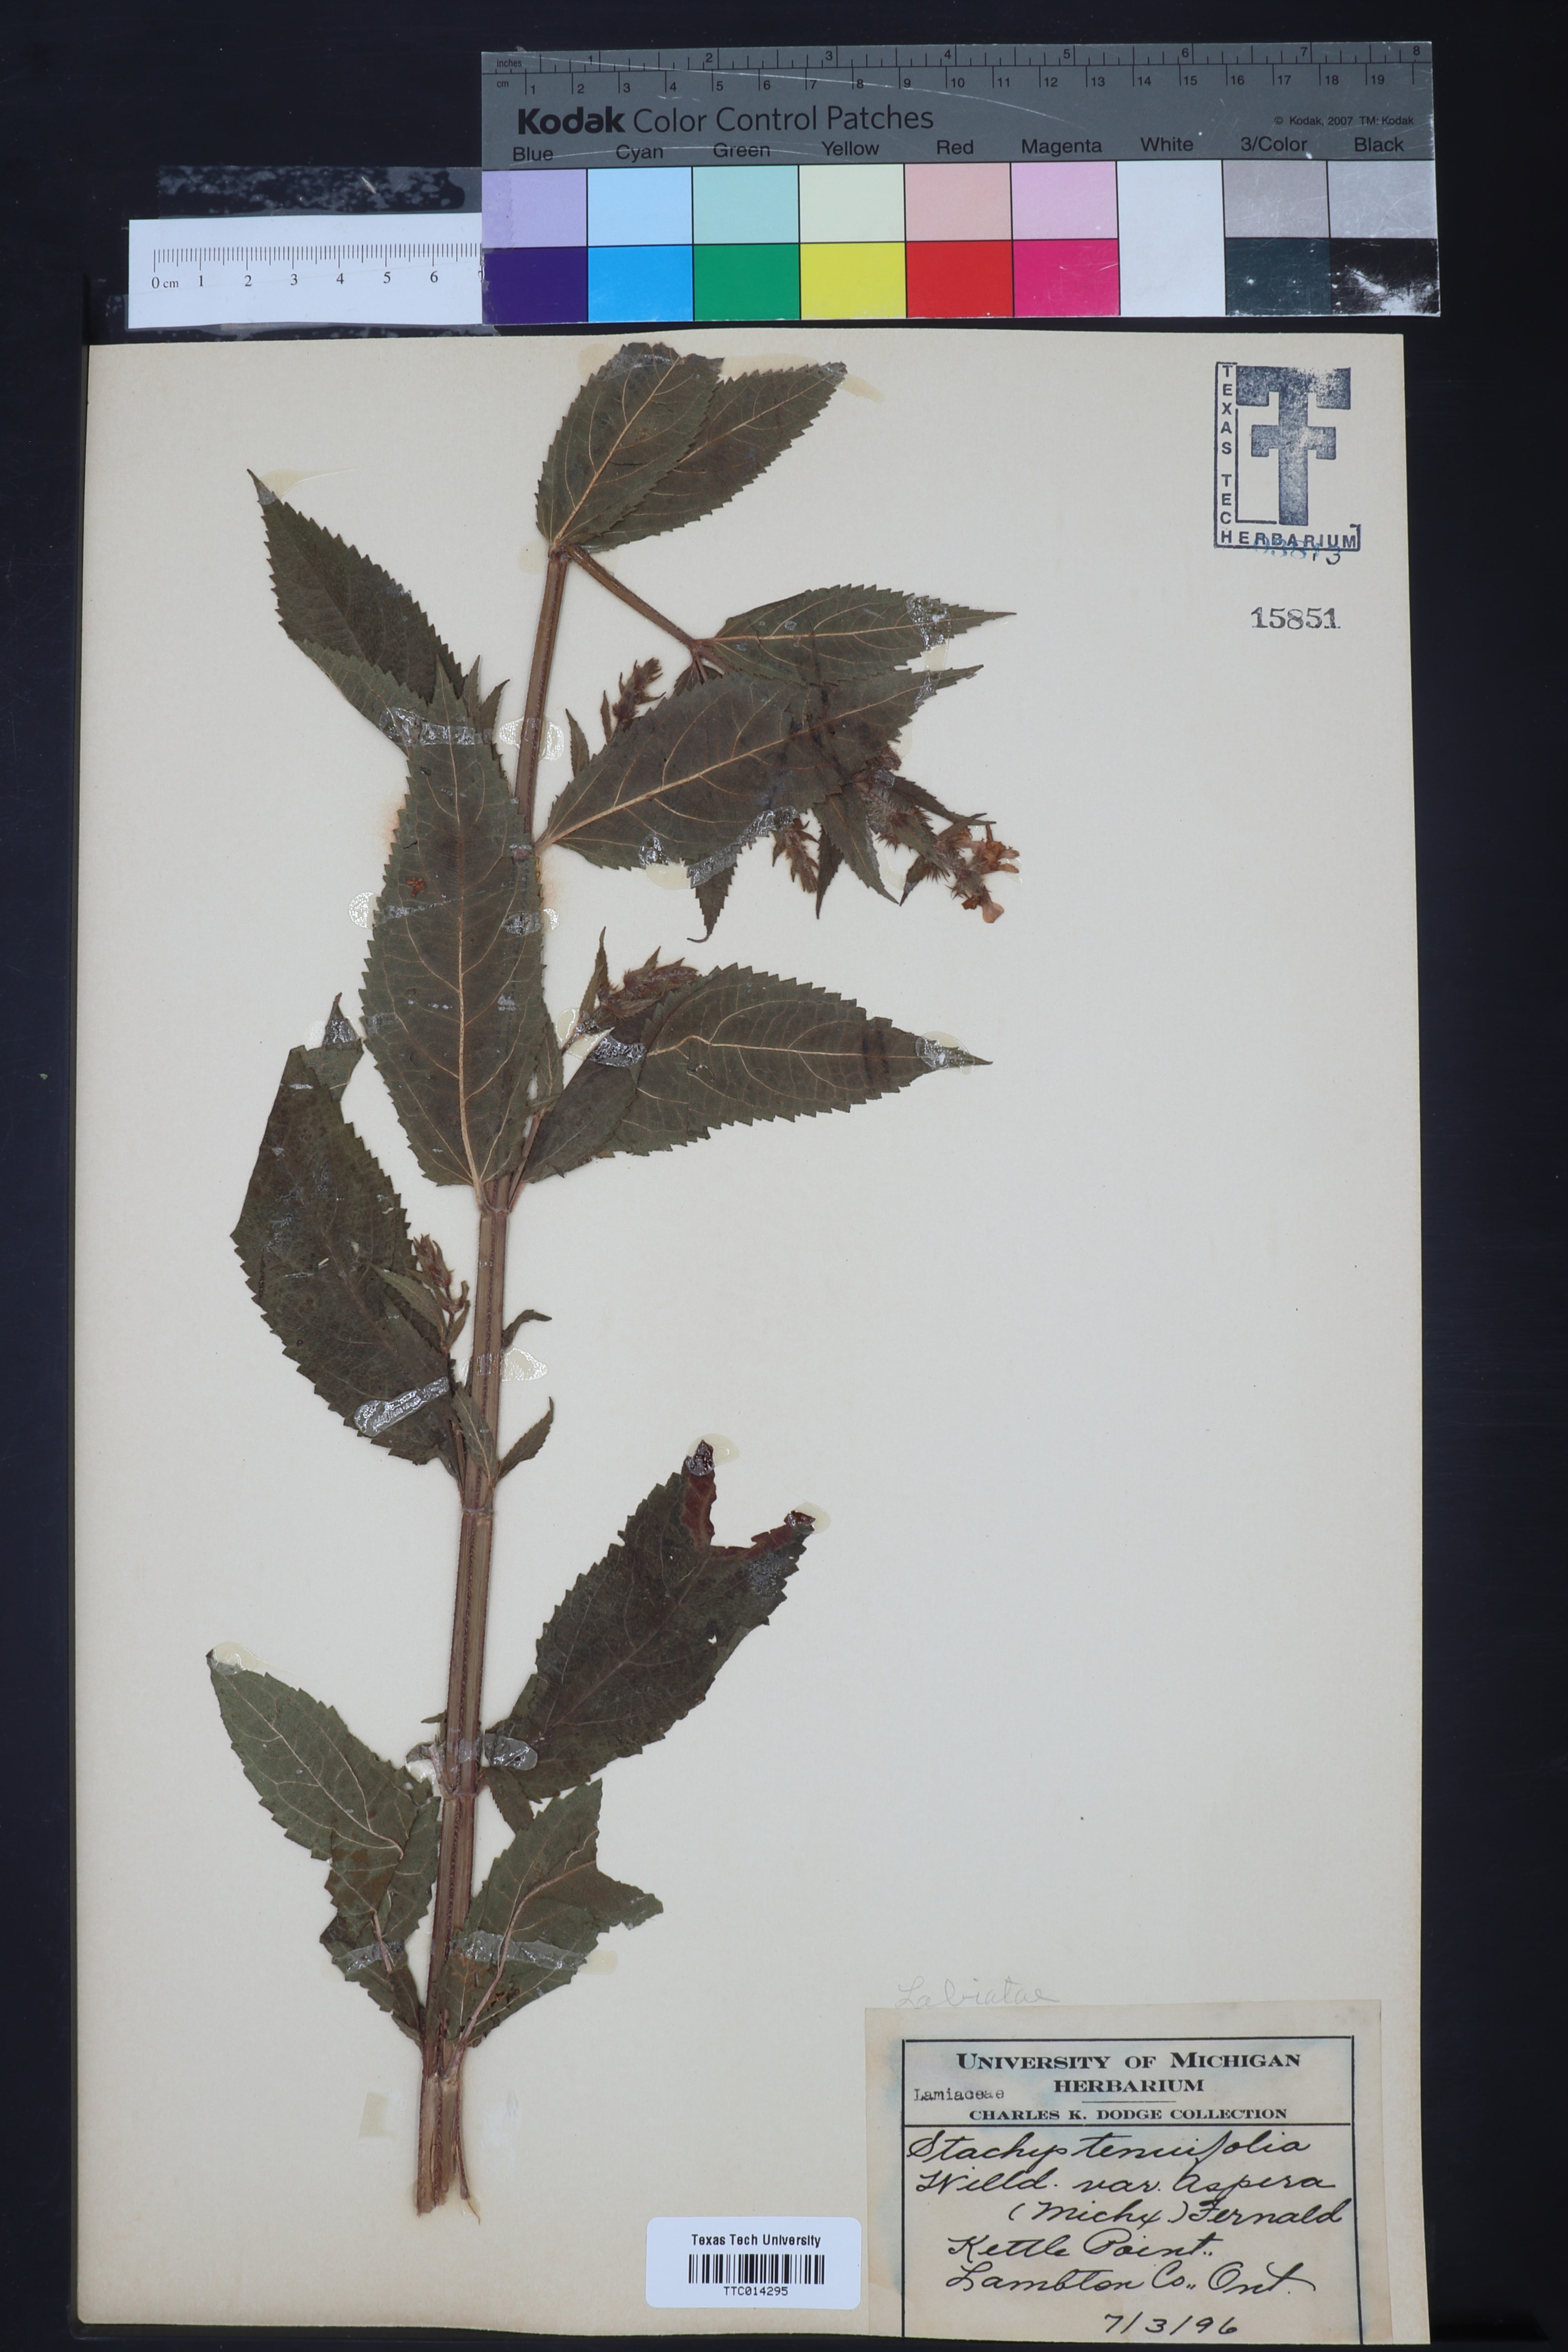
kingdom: Plantae
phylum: Tracheophyta
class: Magnoliopsida
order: Lamiales
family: Lamiaceae
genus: Stachys
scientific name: Stachys tenuifolia
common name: Smooth hedge-nettle
